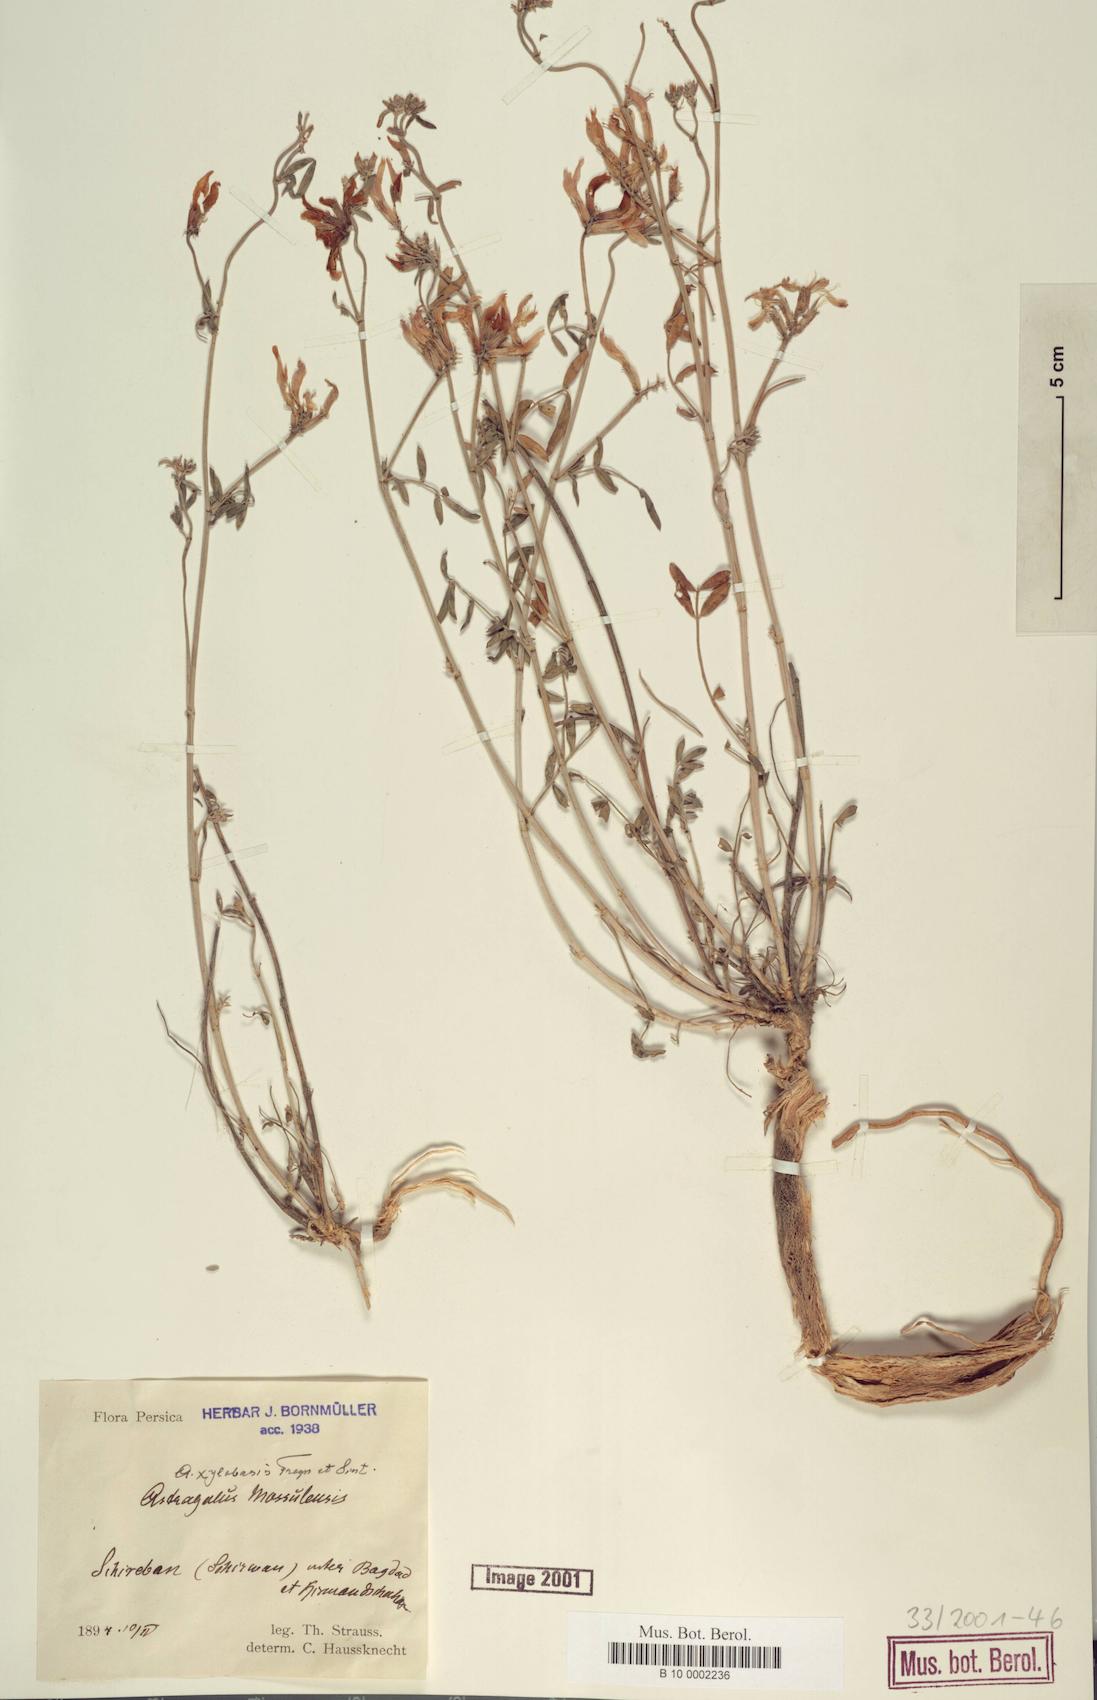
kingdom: Plantae
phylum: Tracheophyta
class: Magnoliopsida
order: Fabales
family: Fabaceae
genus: Astragalus
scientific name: Astragalus aduncus
